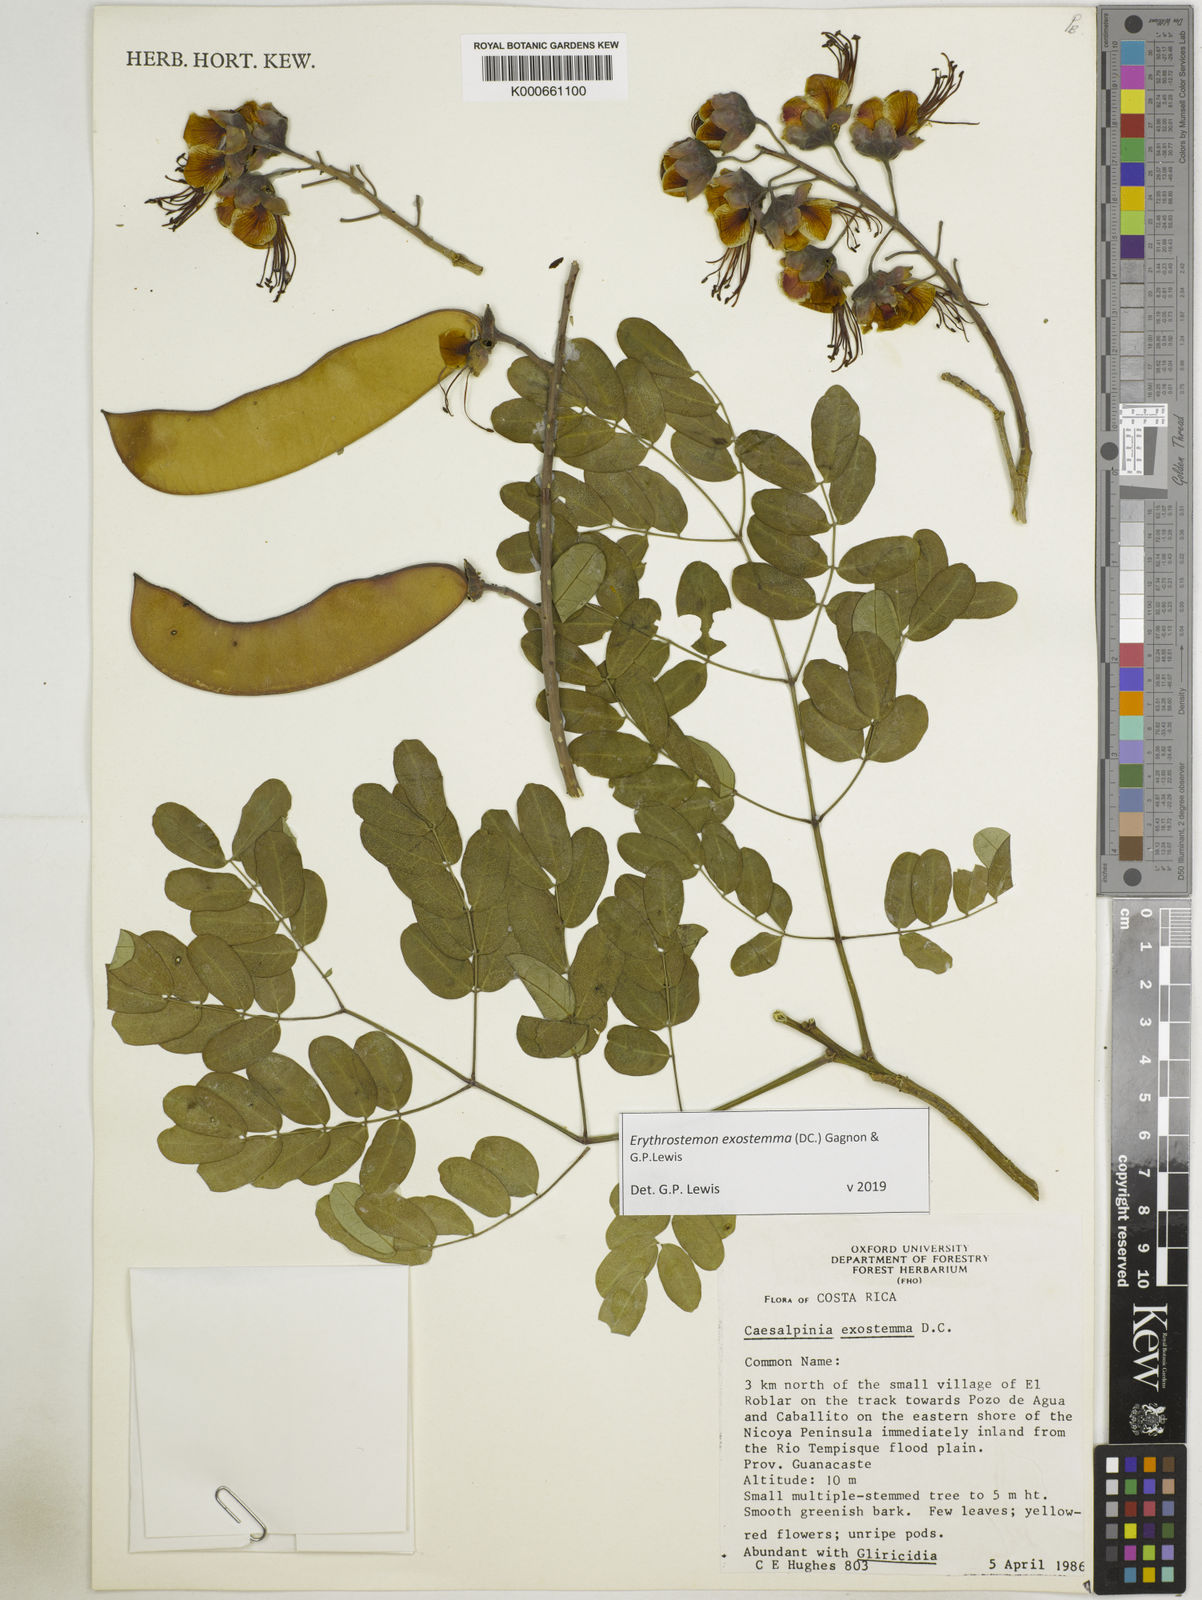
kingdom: Plantae
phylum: Tracheophyta
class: Magnoliopsida
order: Fabales
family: Fabaceae
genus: Erythrostemon
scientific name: Erythrostemon exostemma
